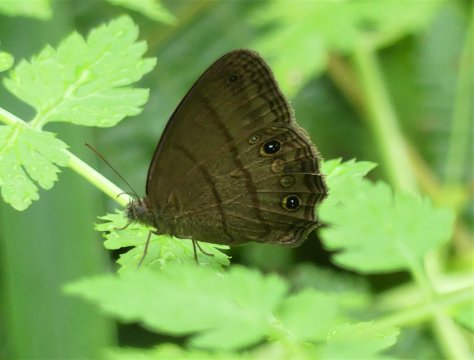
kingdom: Animalia
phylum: Arthropoda
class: Insecta
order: Lepidoptera
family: Nymphalidae
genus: Hermeuptychia
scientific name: Hermeuptychia
